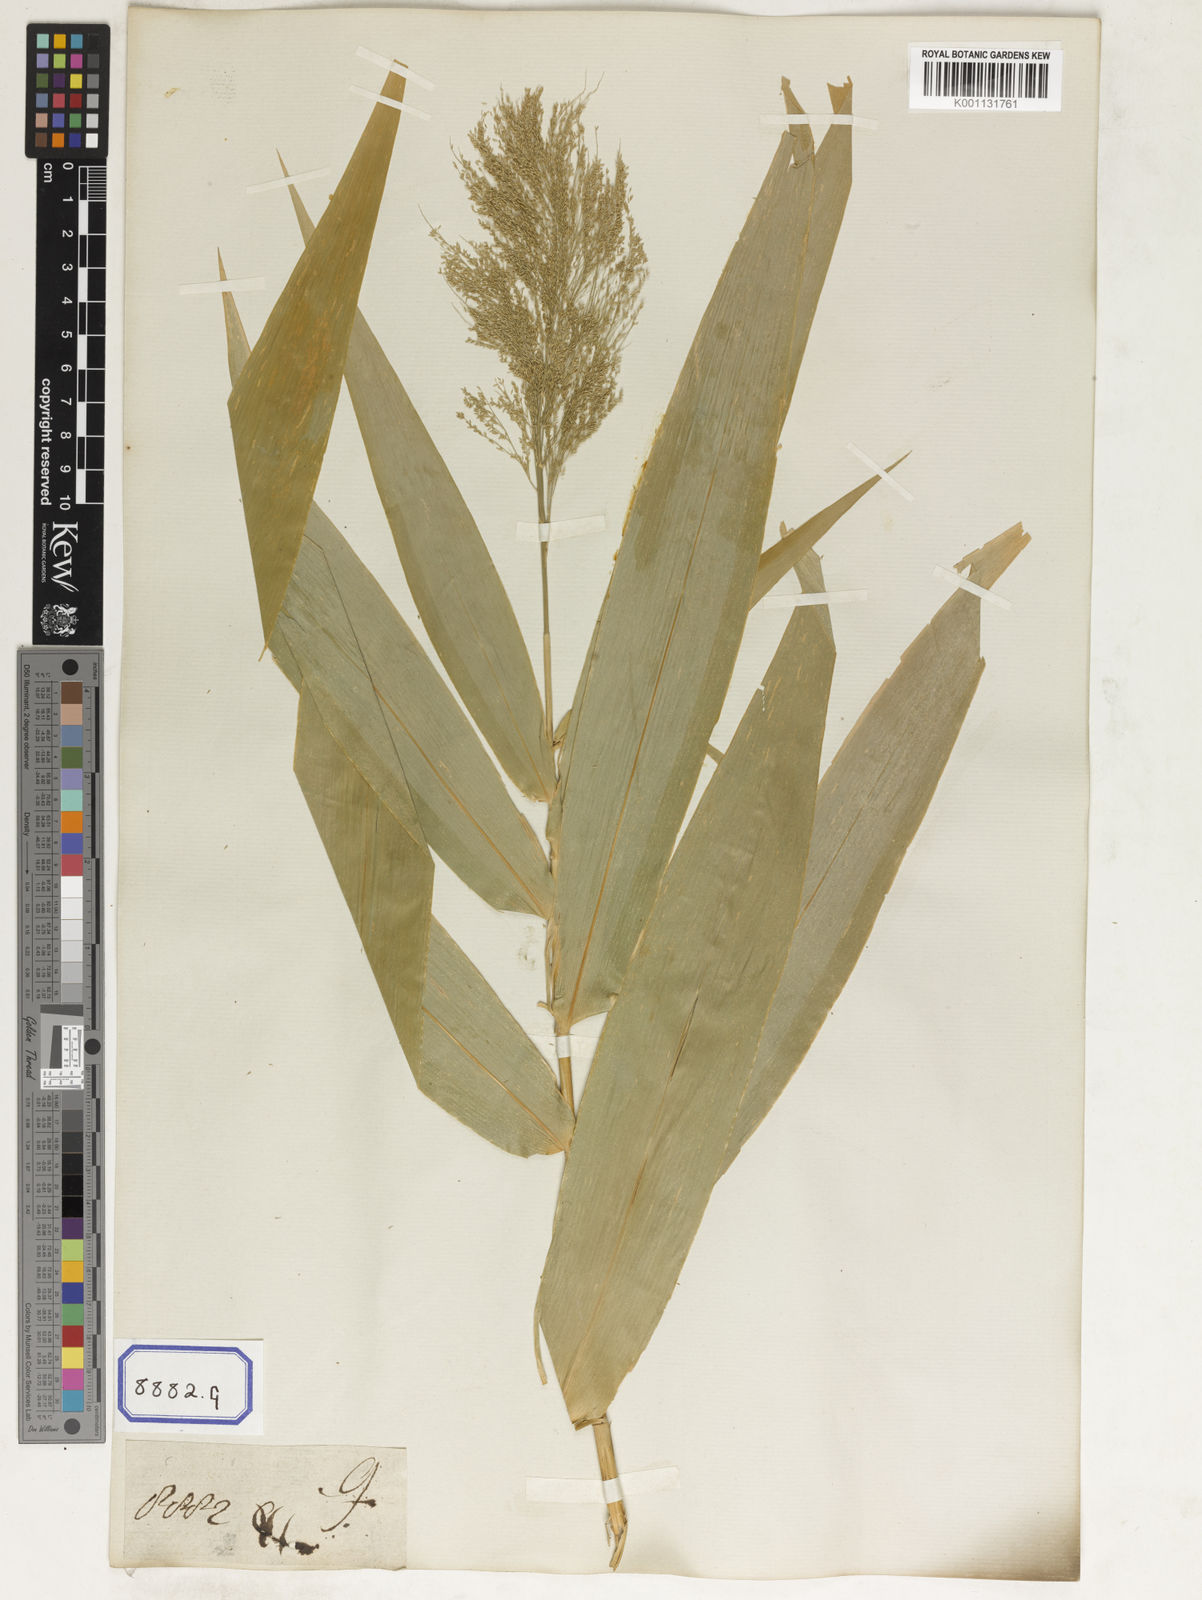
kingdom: Plantae
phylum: Tracheophyta
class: Liliopsida
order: Poales
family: Poaceae
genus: Thysanolaena
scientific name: Thysanolaena latifolia
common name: Tiger grass
